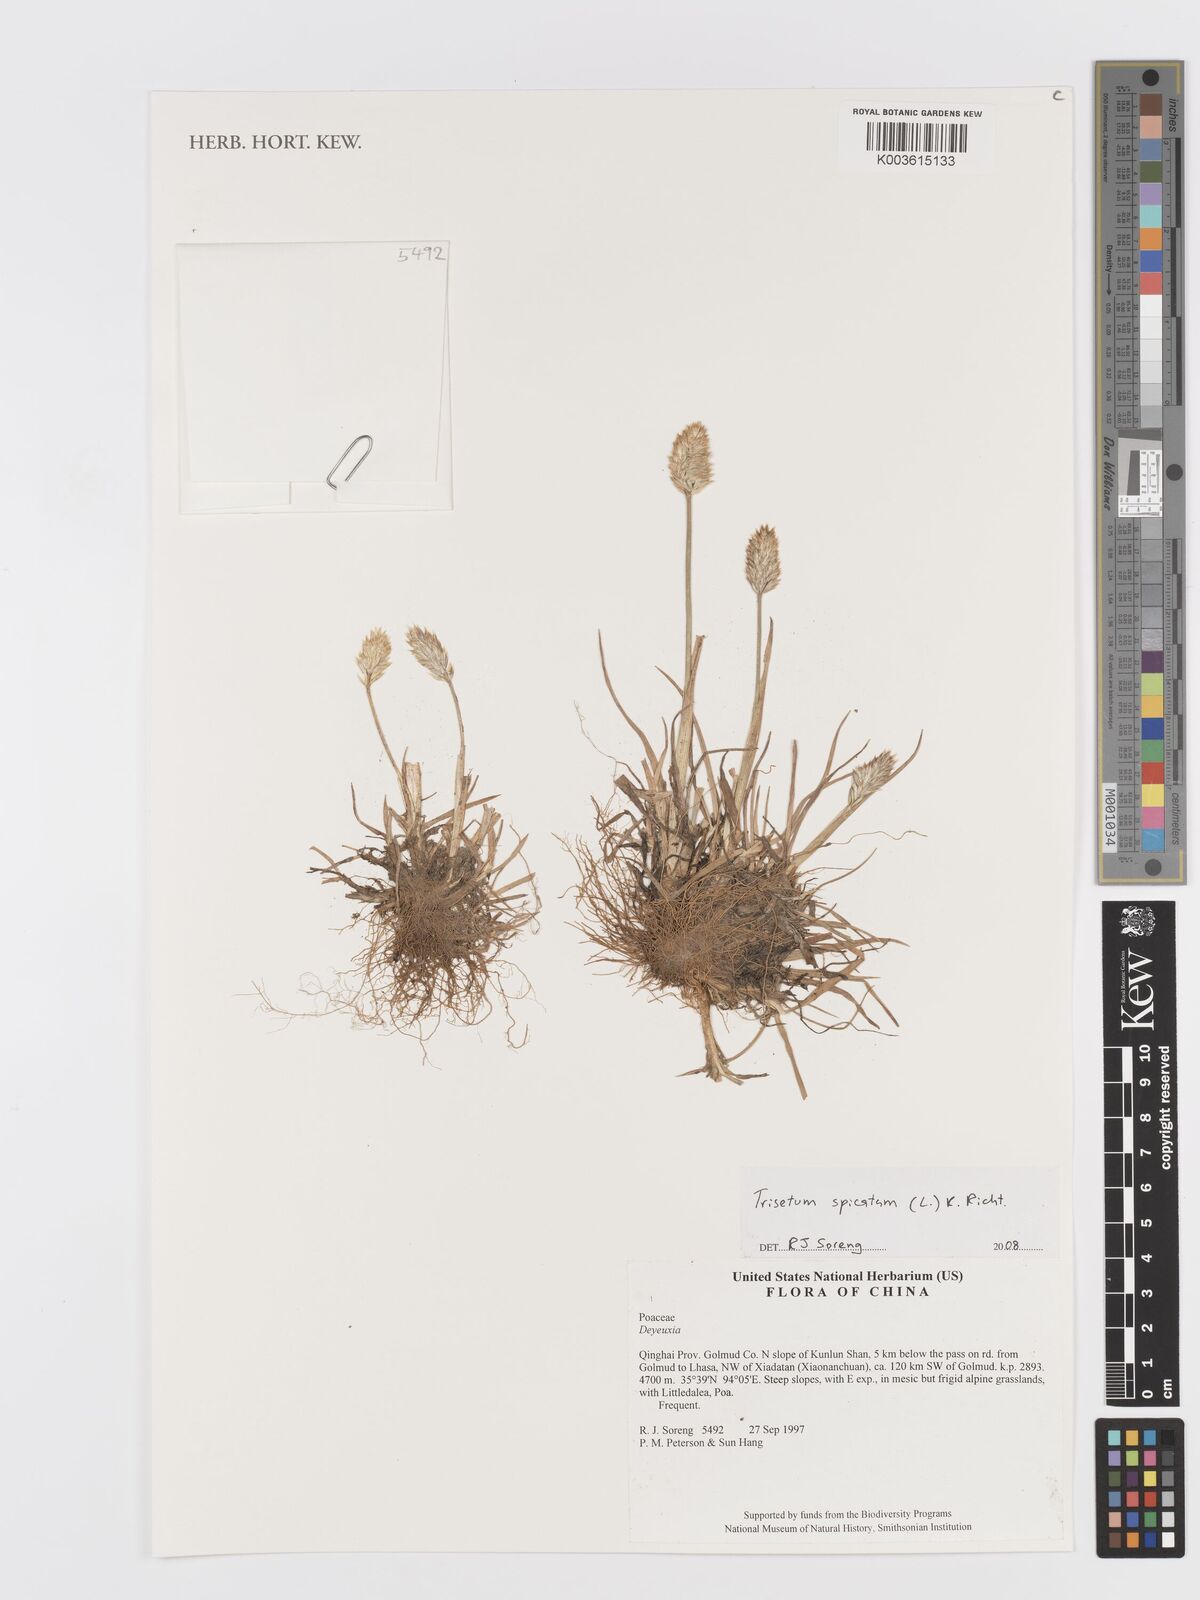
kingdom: Plantae
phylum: Tracheophyta
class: Liliopsida
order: Poales
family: Poaceae
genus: Koeleria
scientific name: Koeleria spicata
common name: Mountain trisetum
